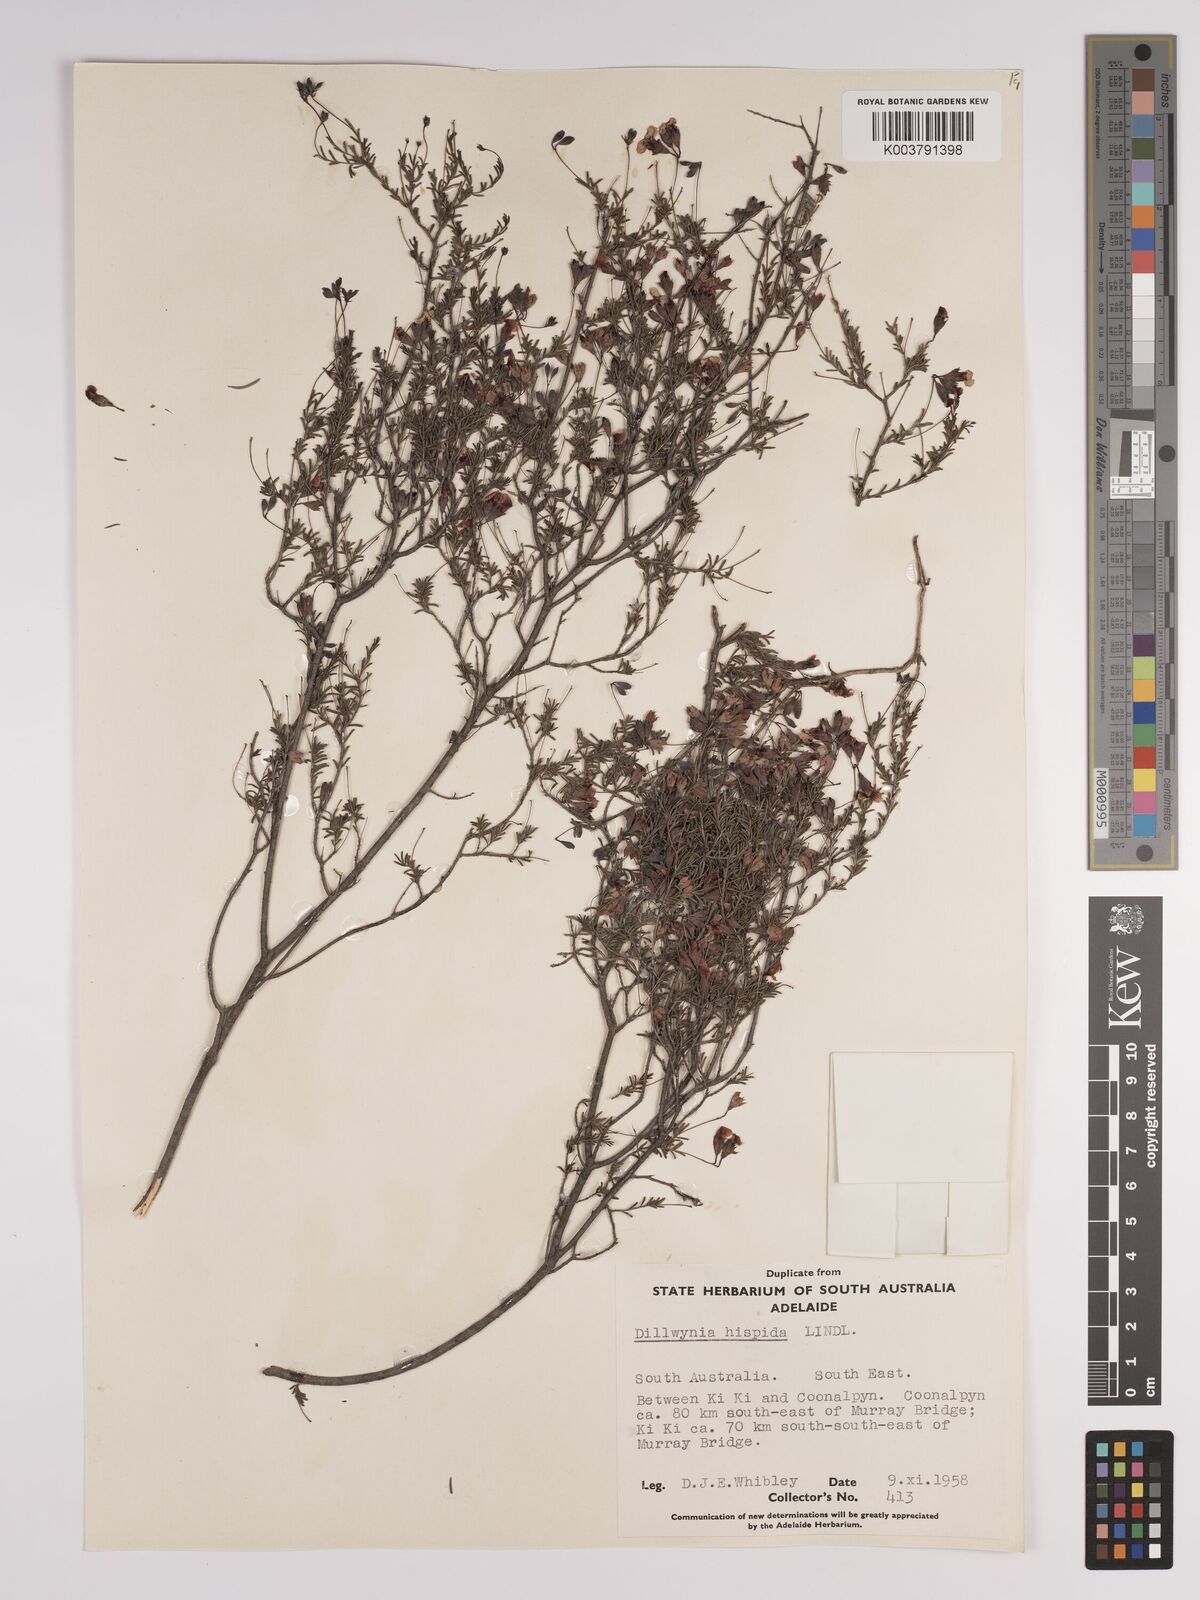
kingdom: Plantae
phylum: Tracheophyta
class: Magnoliopsida
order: Fabales
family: Fabaceae
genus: Dillwynia
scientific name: Dillwynia hispida
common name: Red parrot-pea
